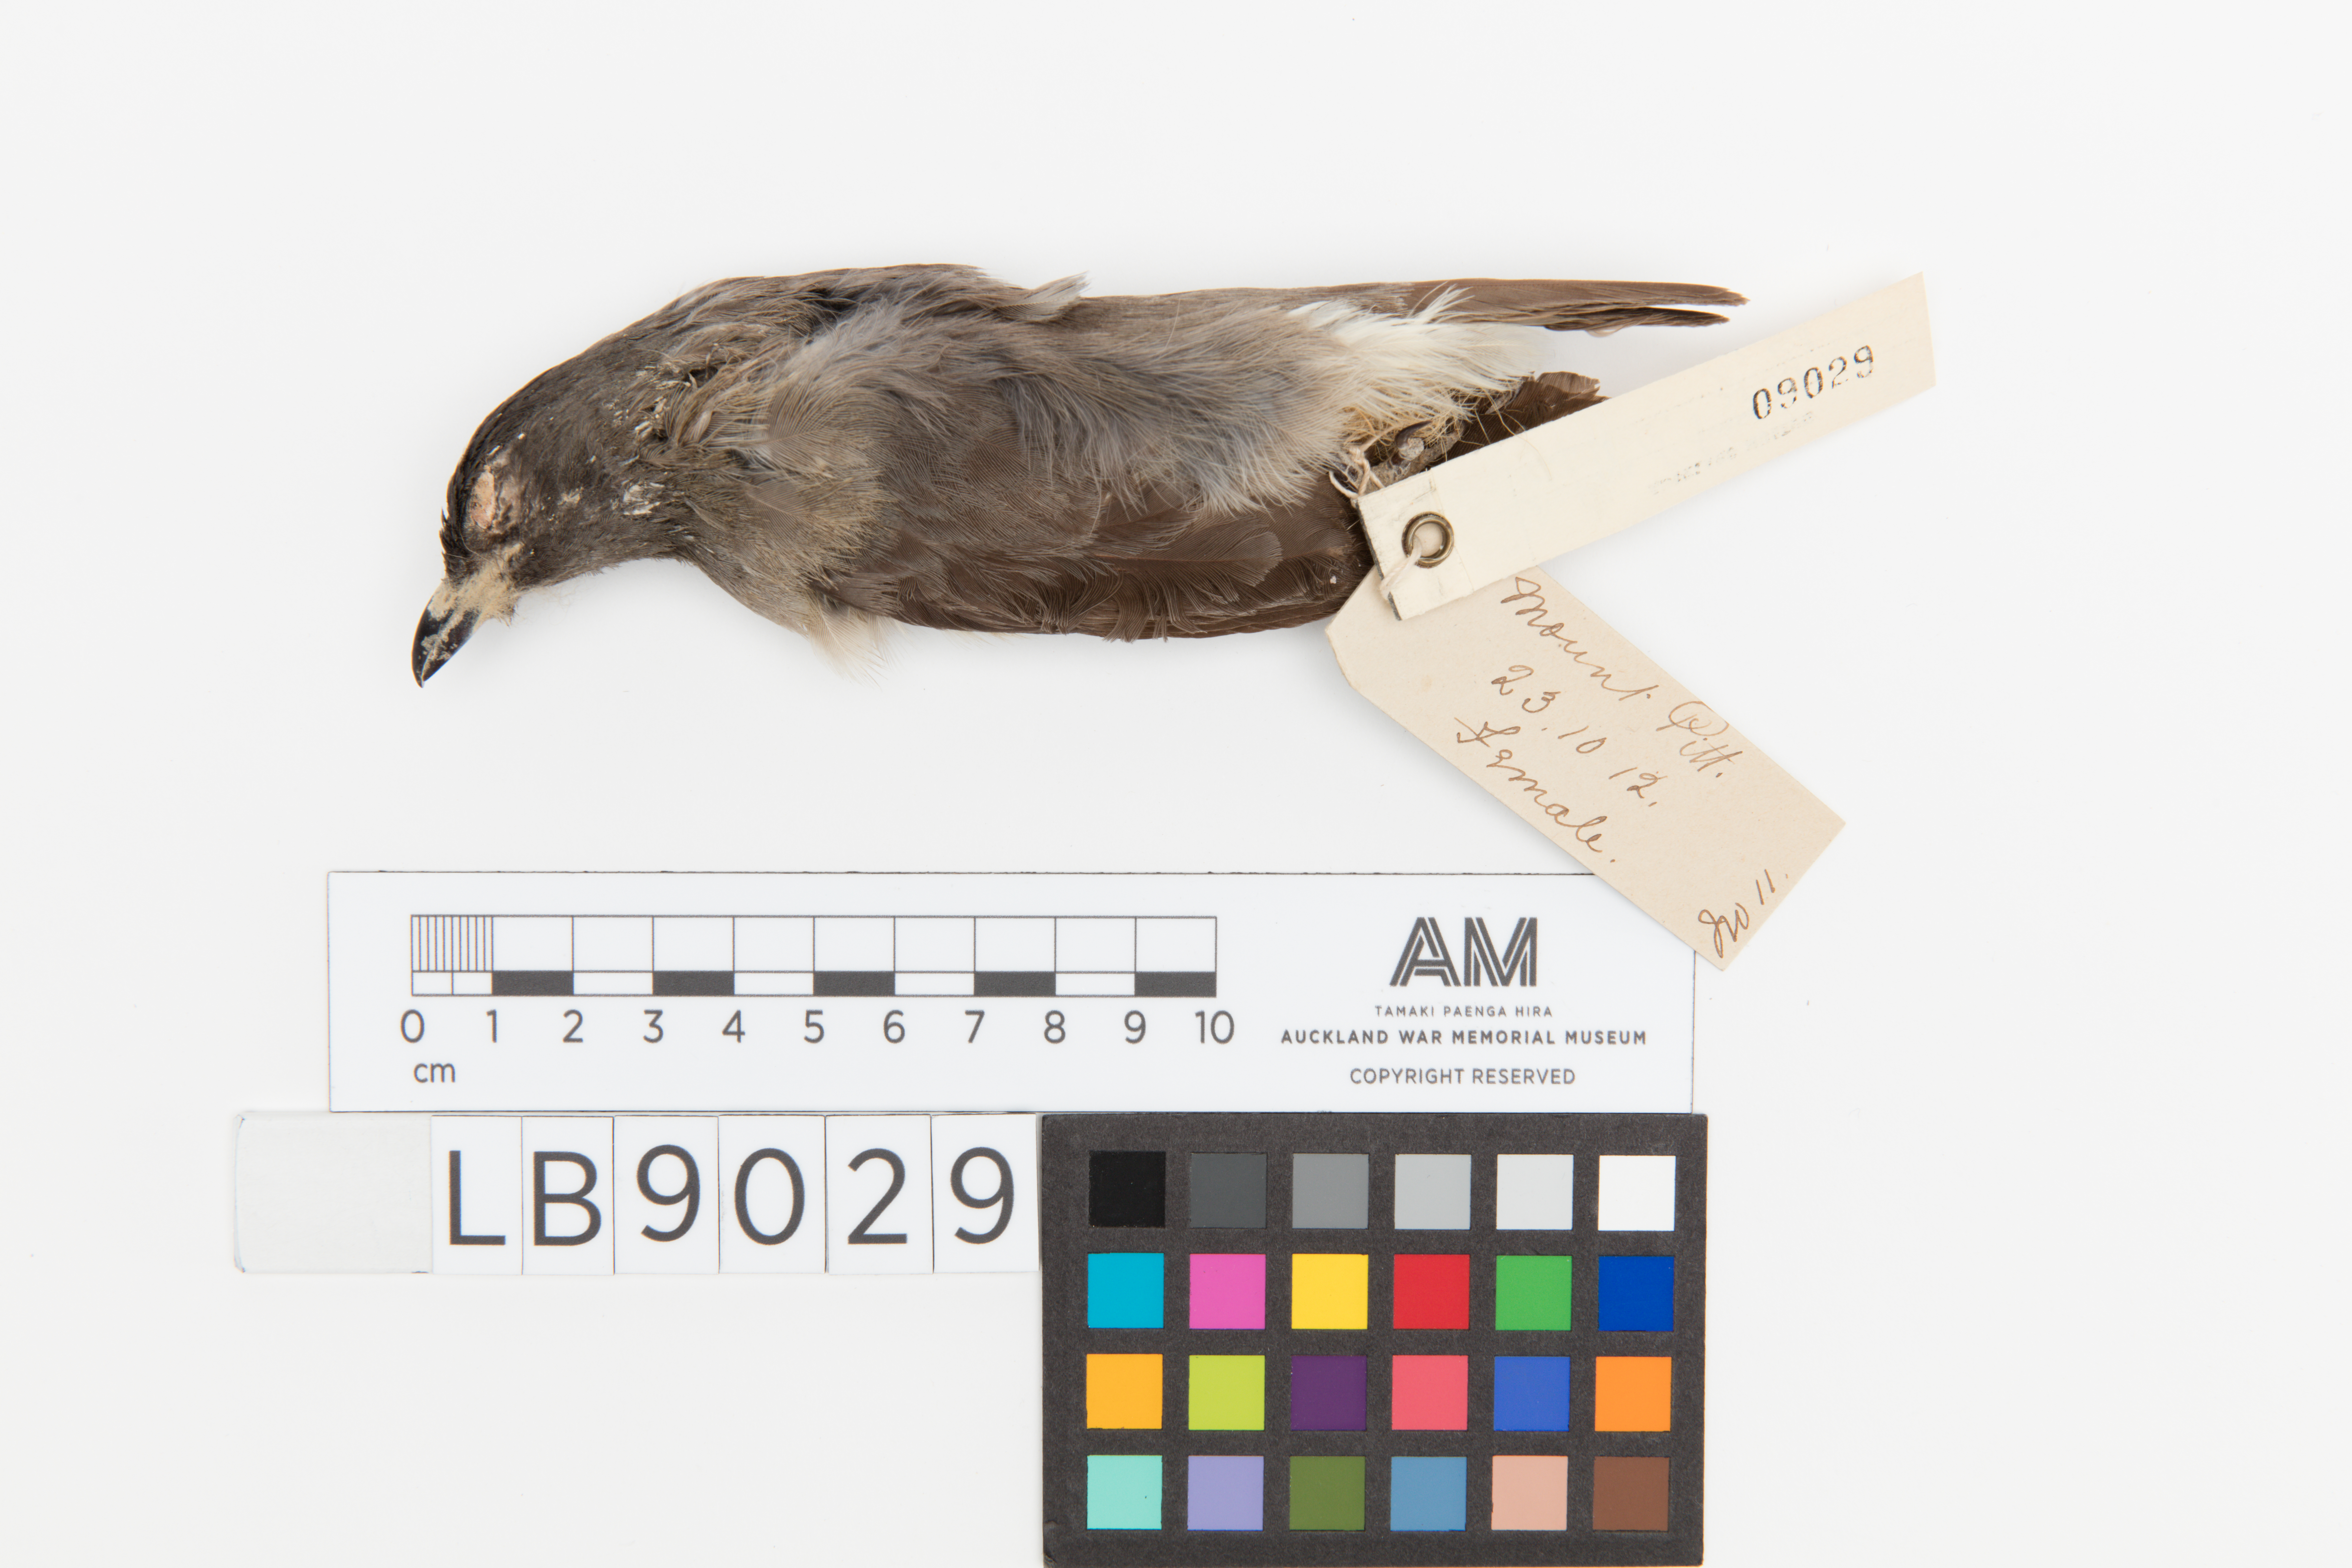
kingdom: Animalia
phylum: Chordata
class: Aves
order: Passeriformes
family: Sturnidae
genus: Aplonis
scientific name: Aplonis fusca
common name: Tasman starling
